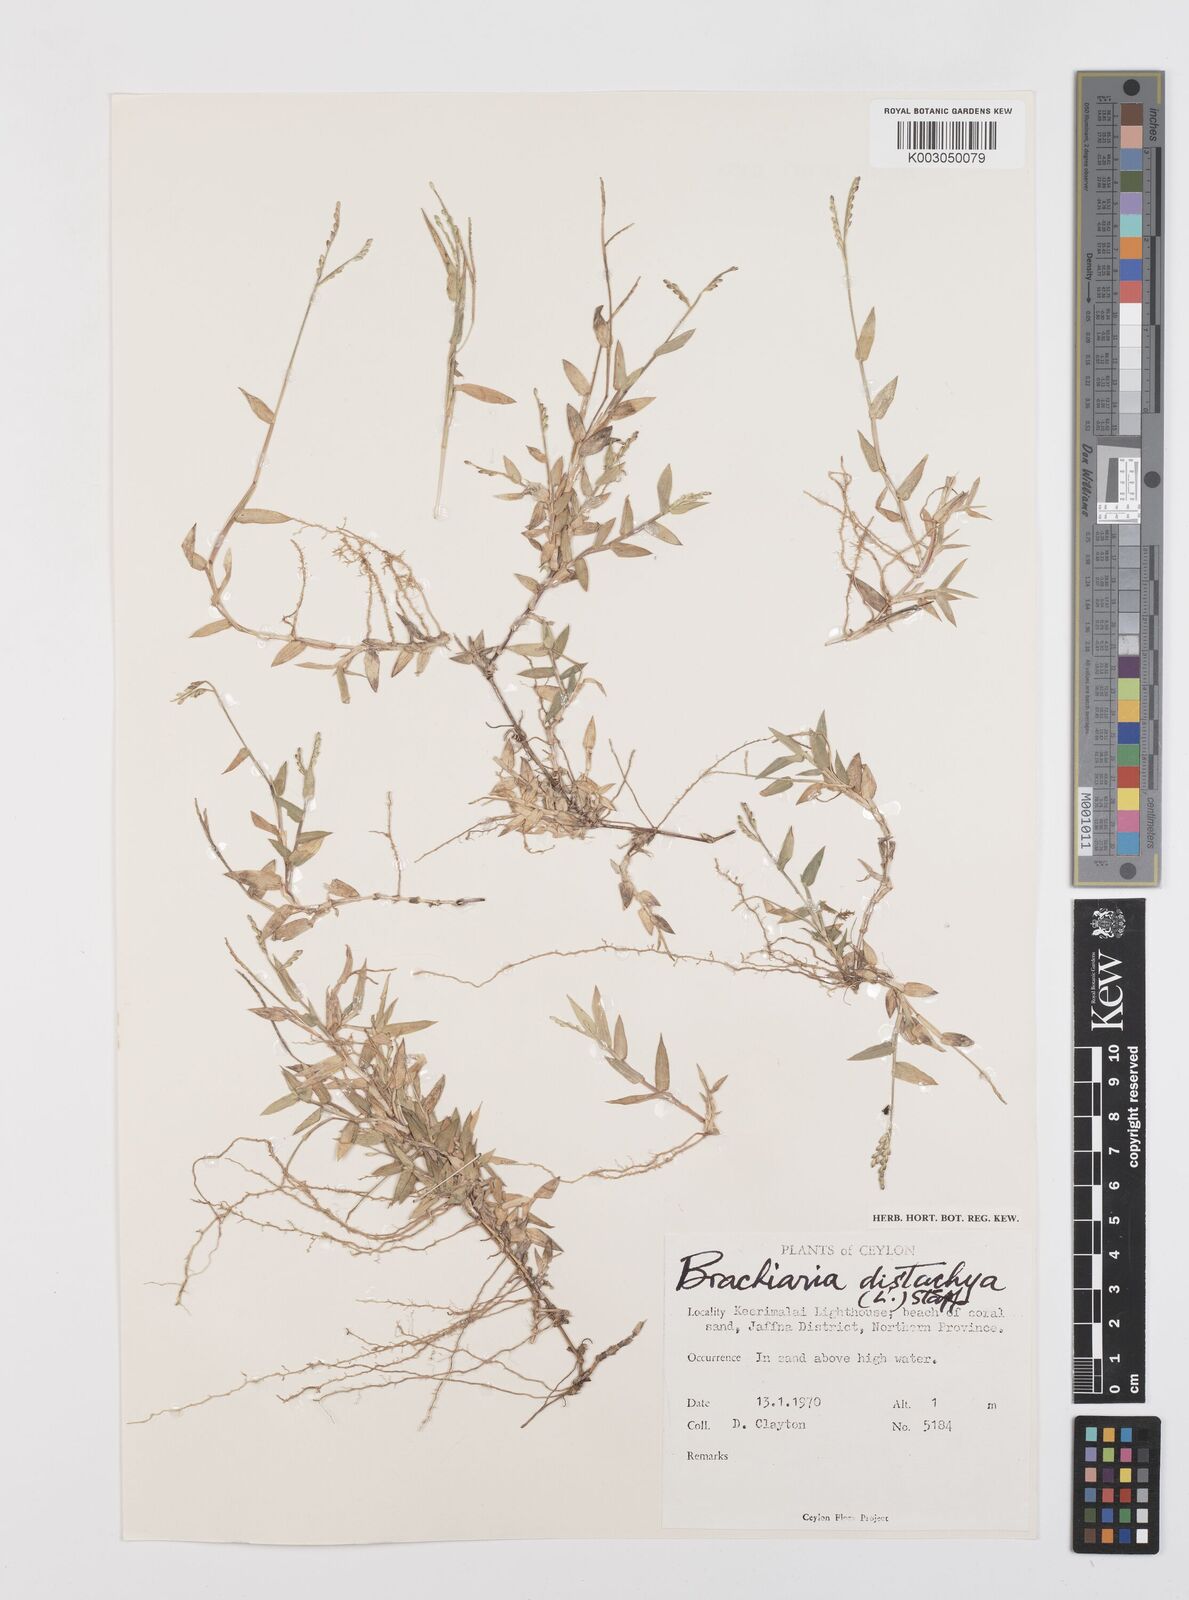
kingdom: Plantae
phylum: Tracheophyta
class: Liliopsida
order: Poales
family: Poaceae
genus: Urochloa
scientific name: Urochloa distachyos
